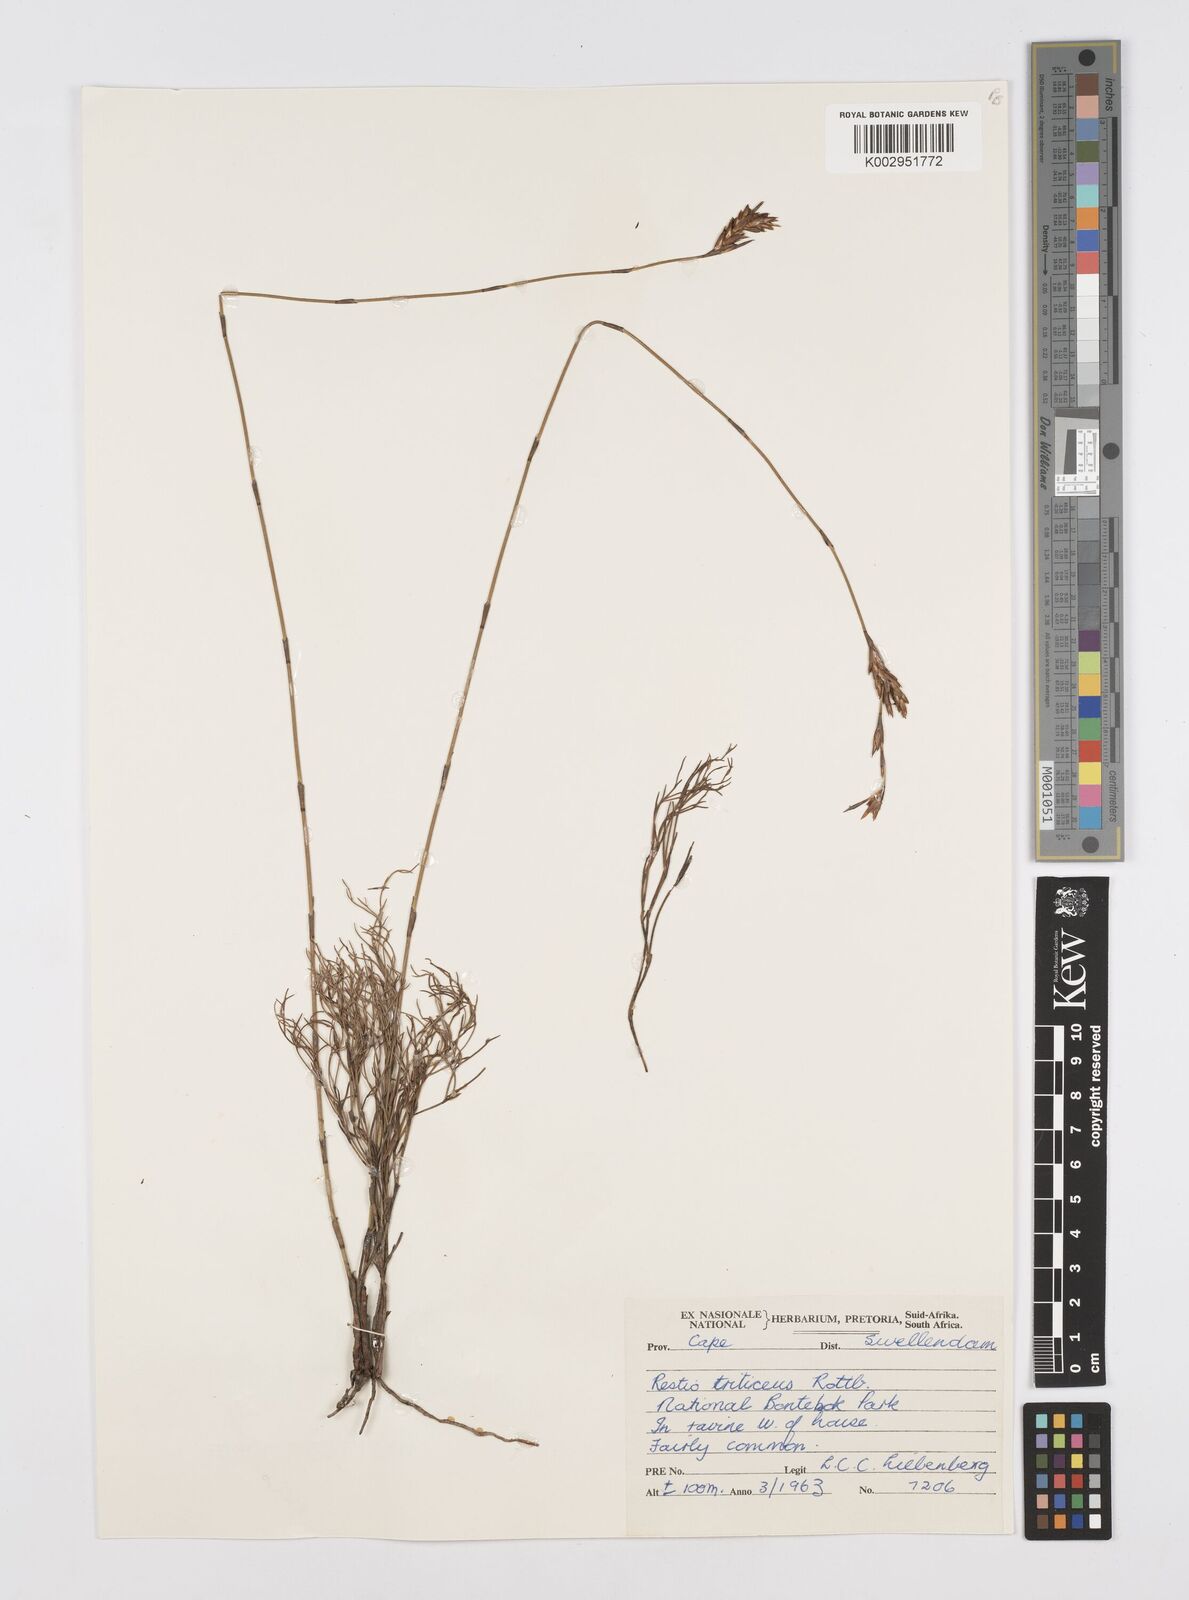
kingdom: Plantae
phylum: Tracheophyta
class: Liliopsida
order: Poales
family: Restionaceae
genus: Restio
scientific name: Restio triticeus
